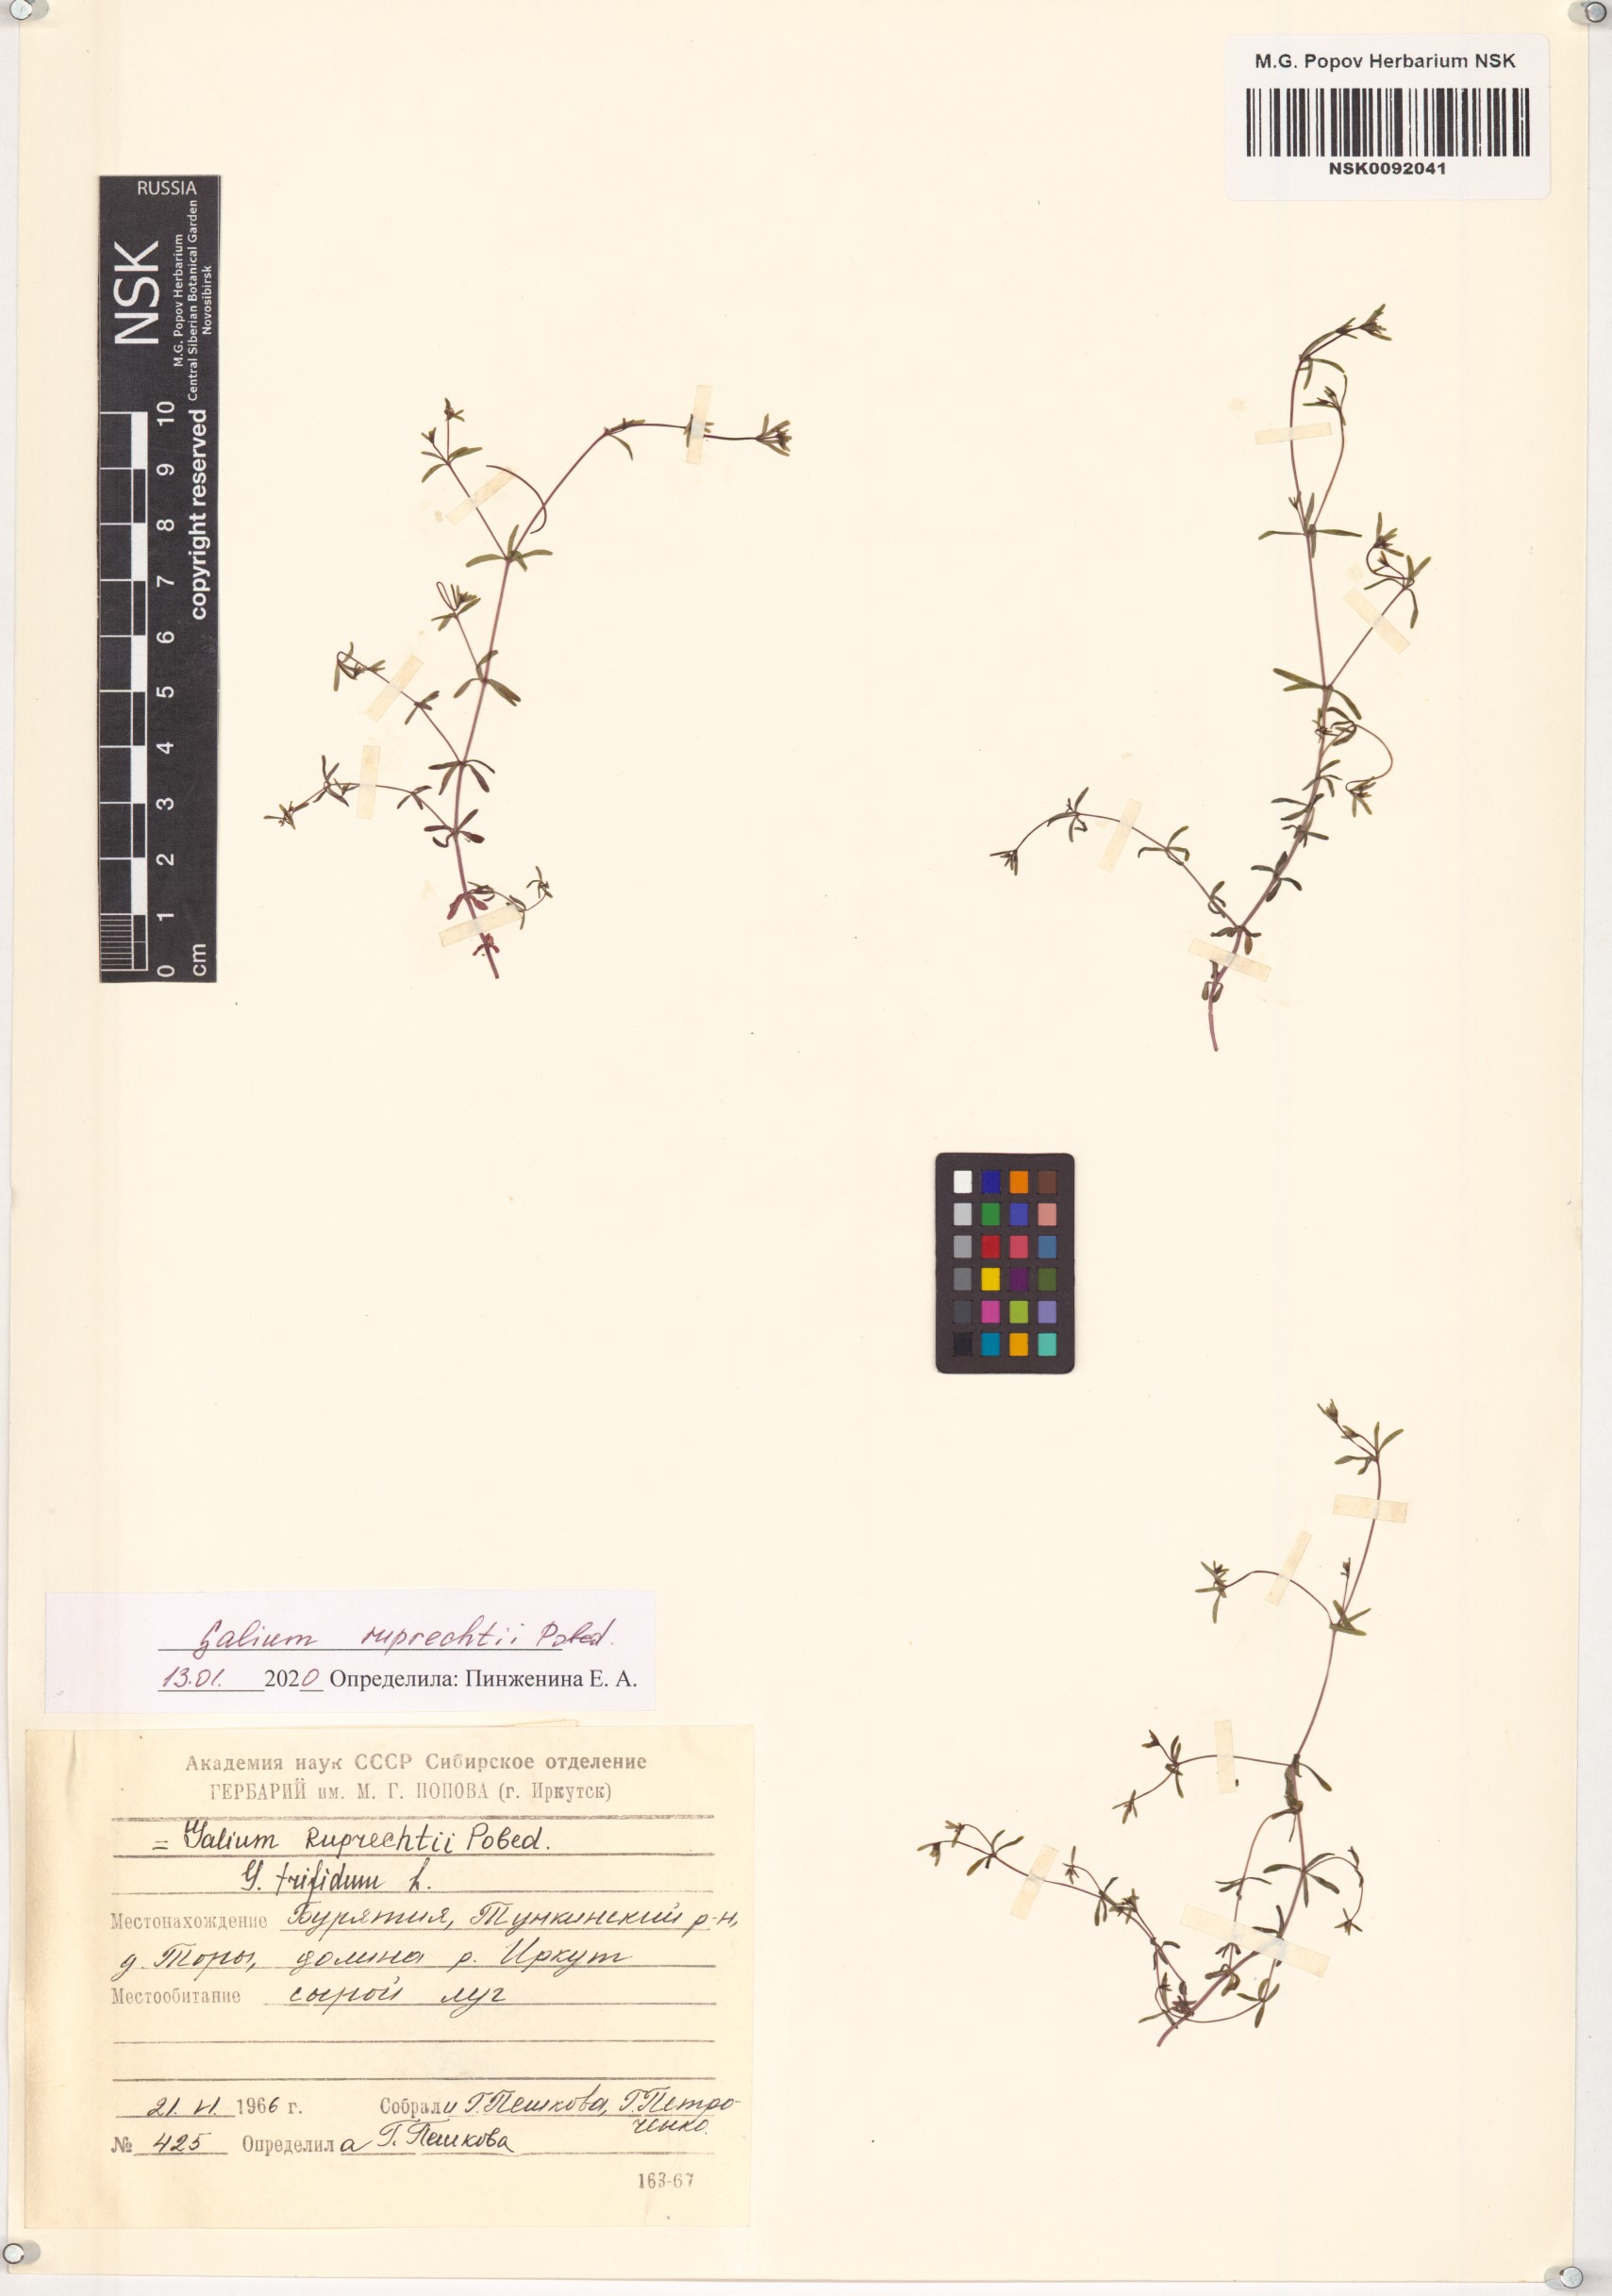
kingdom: Plantae
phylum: Tracheophyta
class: Magnoliopsida
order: Gentianales
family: Rubiaceae
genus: Galium
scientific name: Galium trifidum
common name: Small bedstraw
